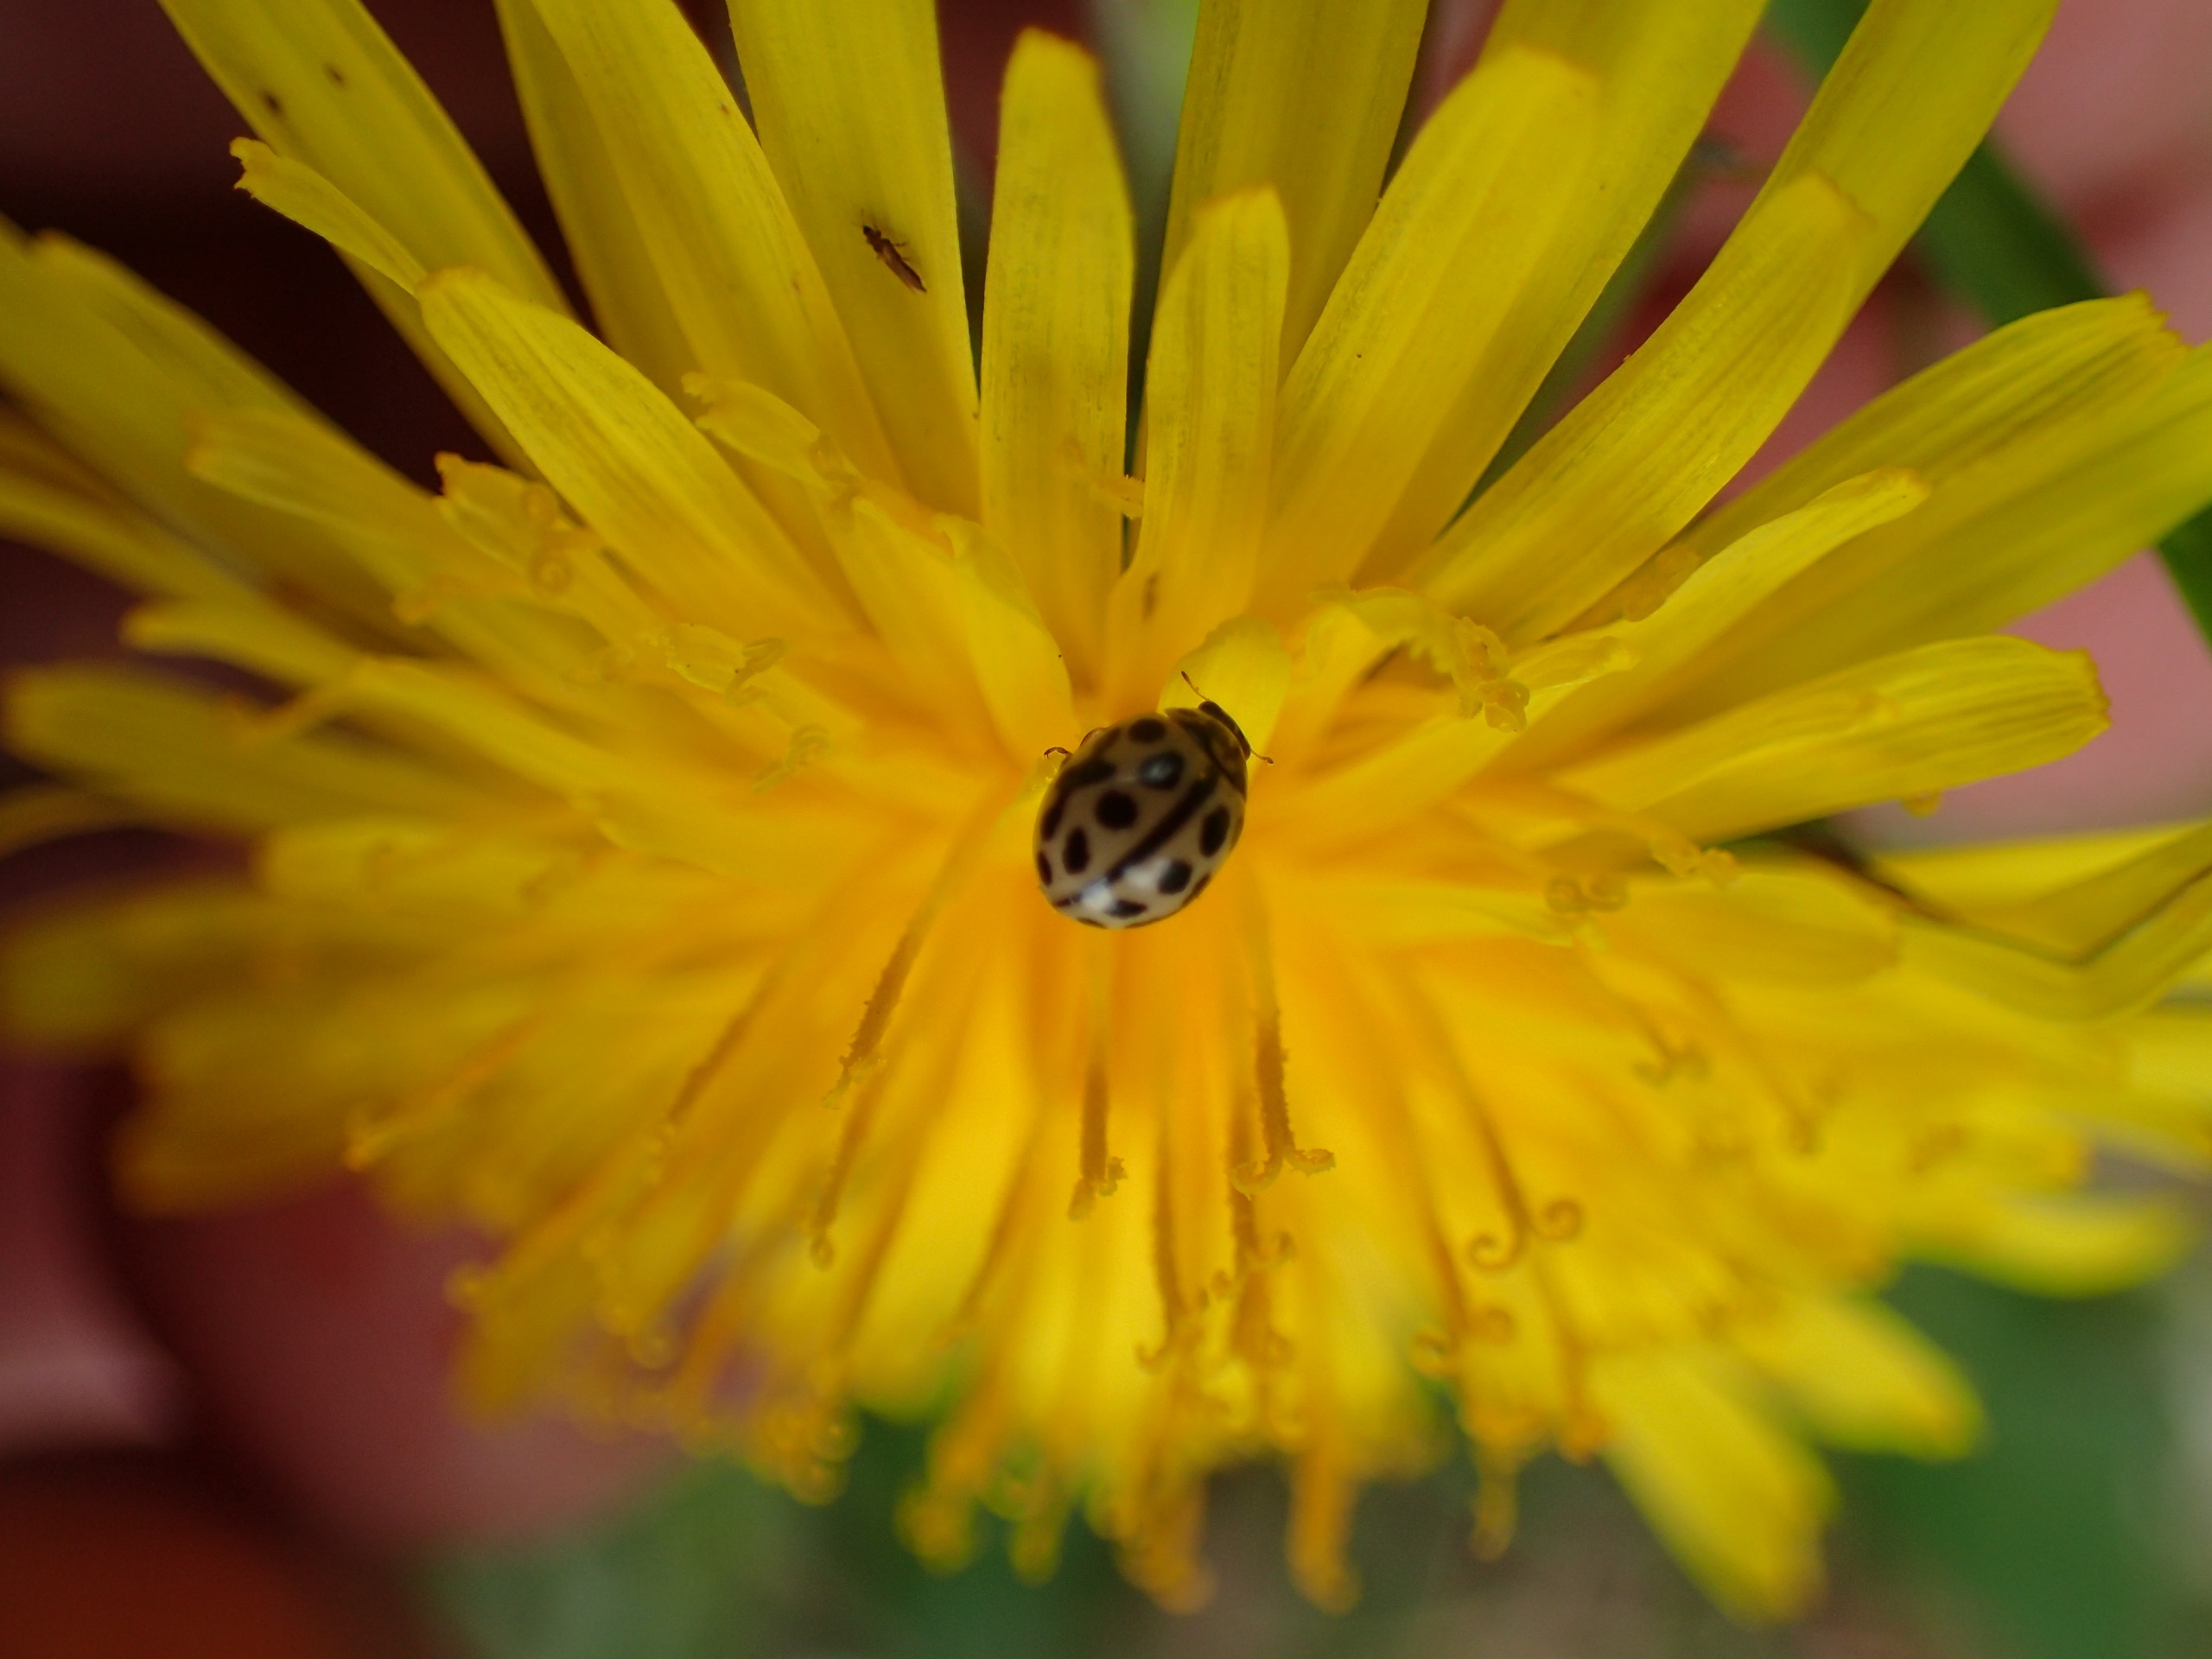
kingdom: Animalia
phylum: Arthropoda
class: Insecta
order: Coleoptera
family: Coccinellidae
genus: Tytthaspis
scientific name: Tytthaspis sedecimpunctata
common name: Sekstenprikket mariehøne
